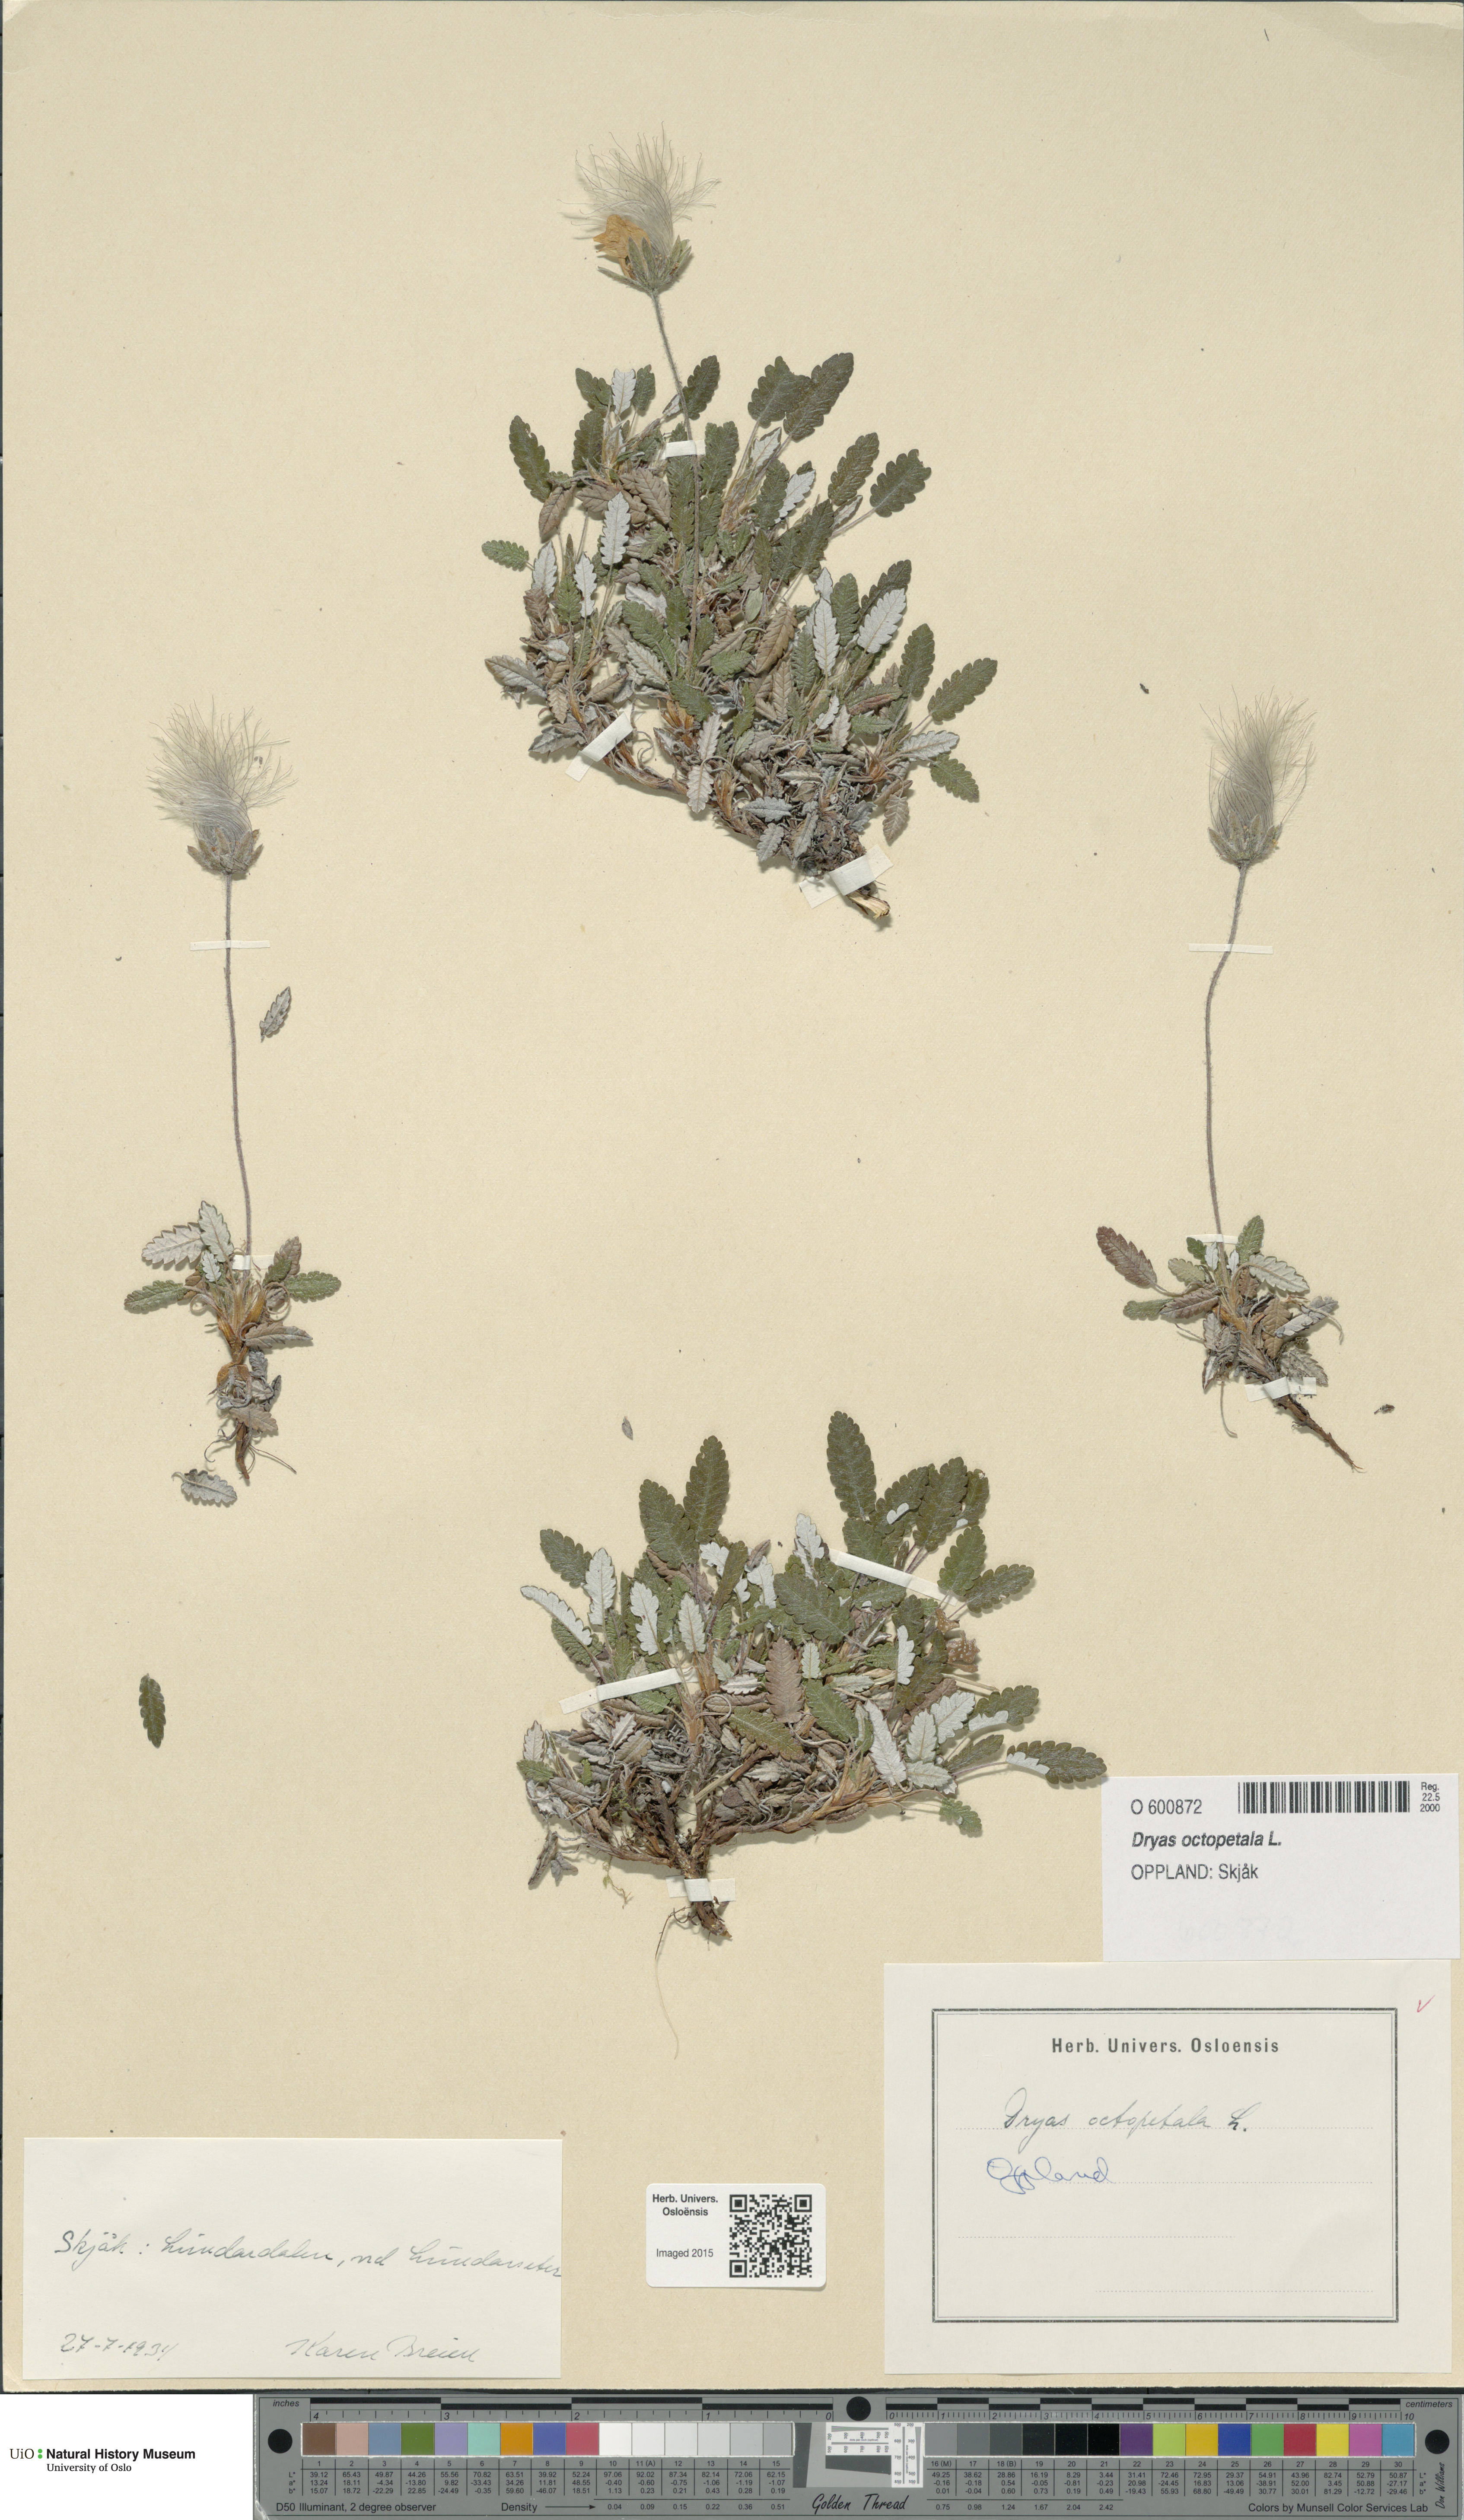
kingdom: Plantae
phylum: Tracheophyta
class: Magnoliopsida
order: Rosales
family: Rosaceae
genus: Dryas
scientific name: Dryas octopetala
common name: Eight-petal mountain-avens
